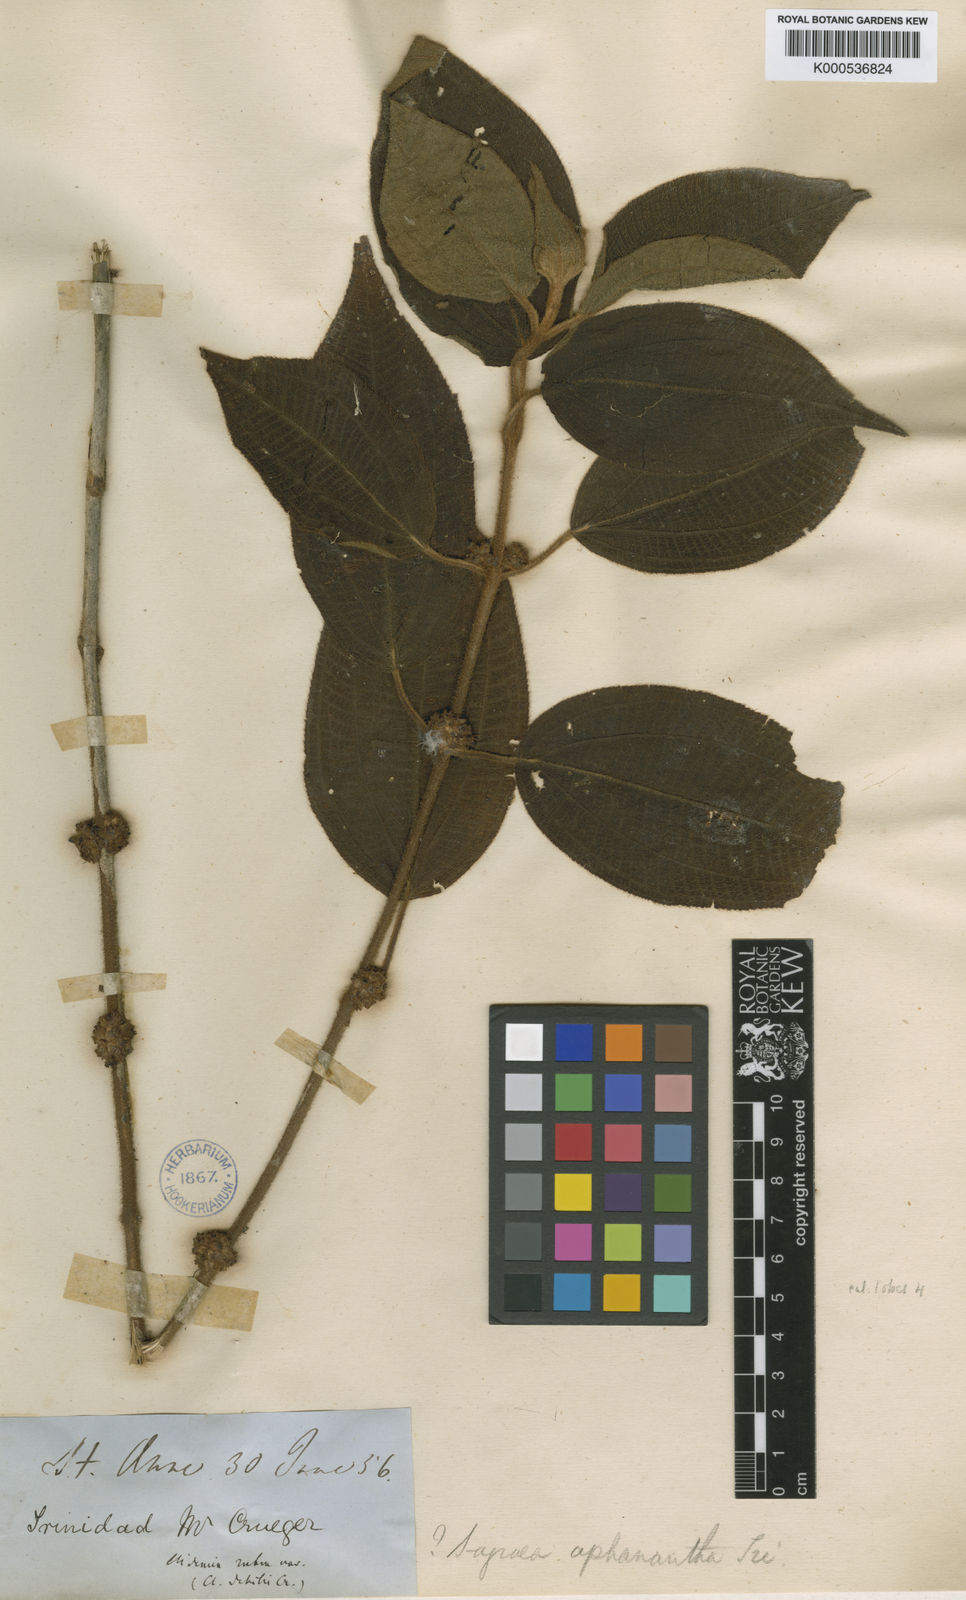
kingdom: Plantae
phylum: Tracheophyta
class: Magnoliopsida
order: Myrtales
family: Melastomataceae
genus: Miconia
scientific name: Miconia debilis
